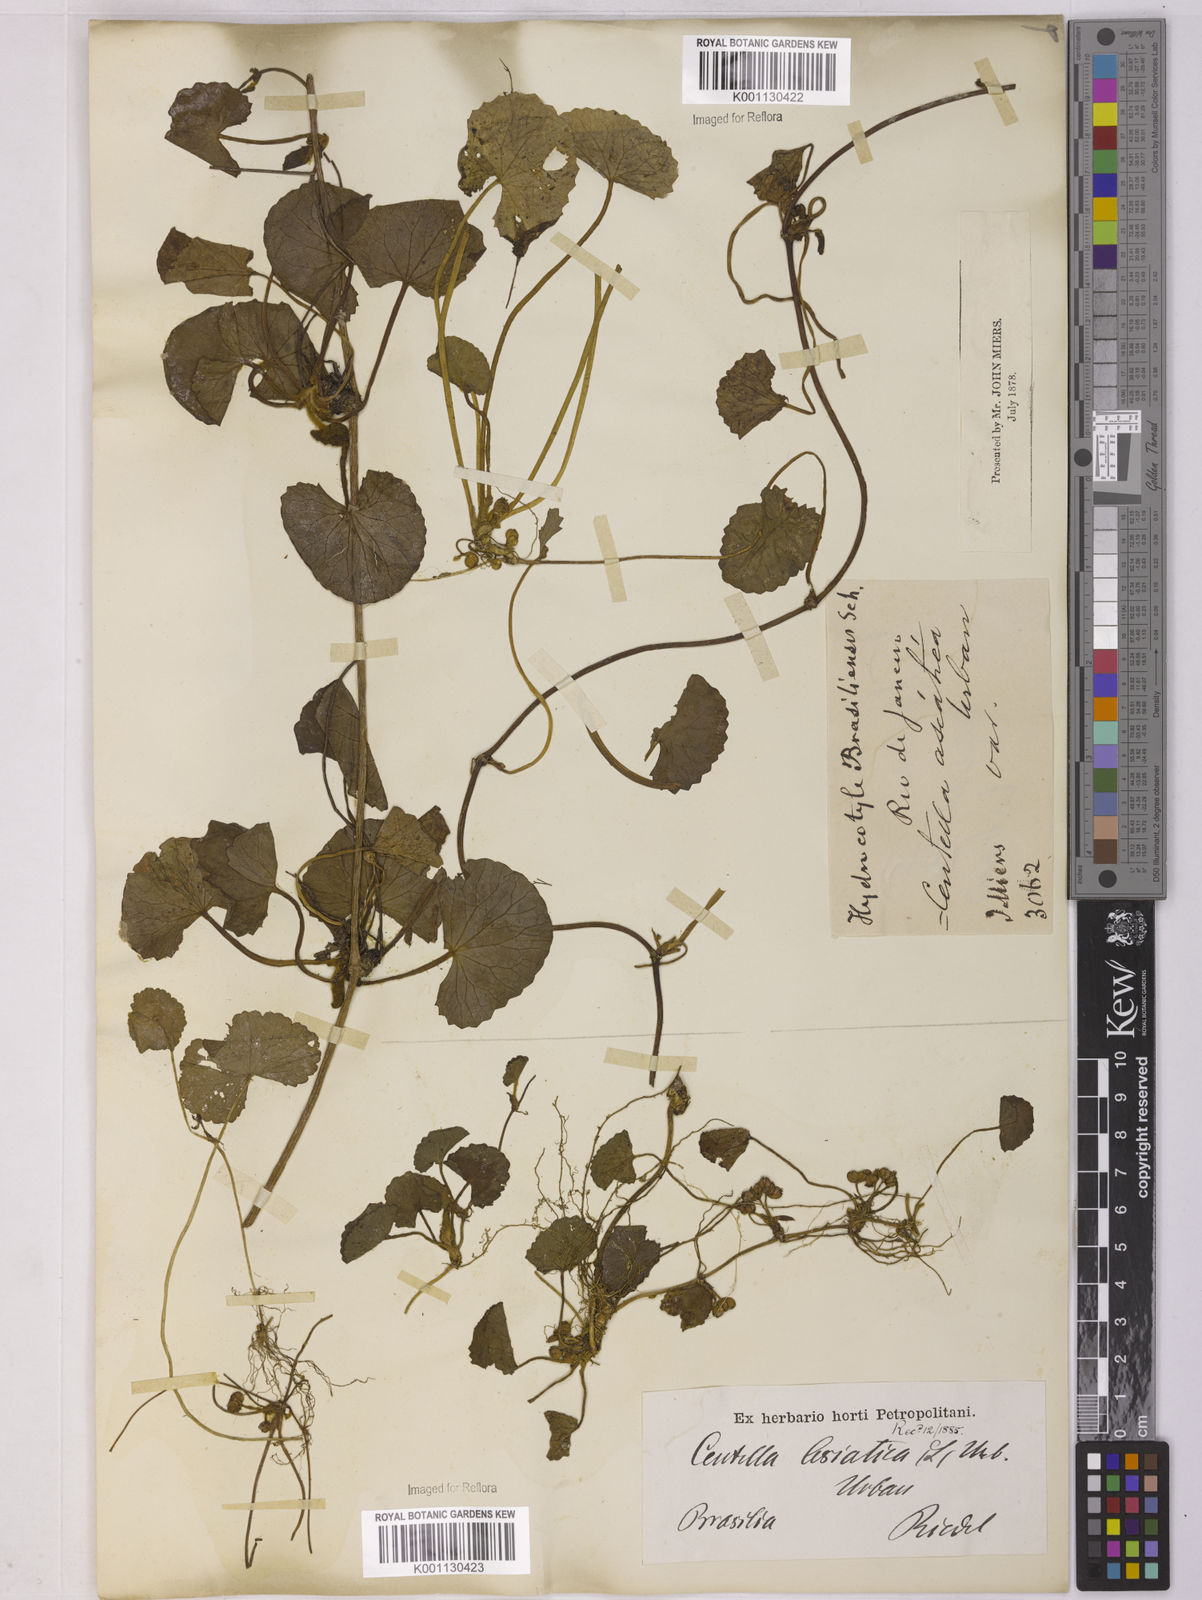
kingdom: Plantae
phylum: Tracheophyta
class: Magnoliopsida
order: Apiales
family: Apiaceae
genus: Centella
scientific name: Centella erecta
